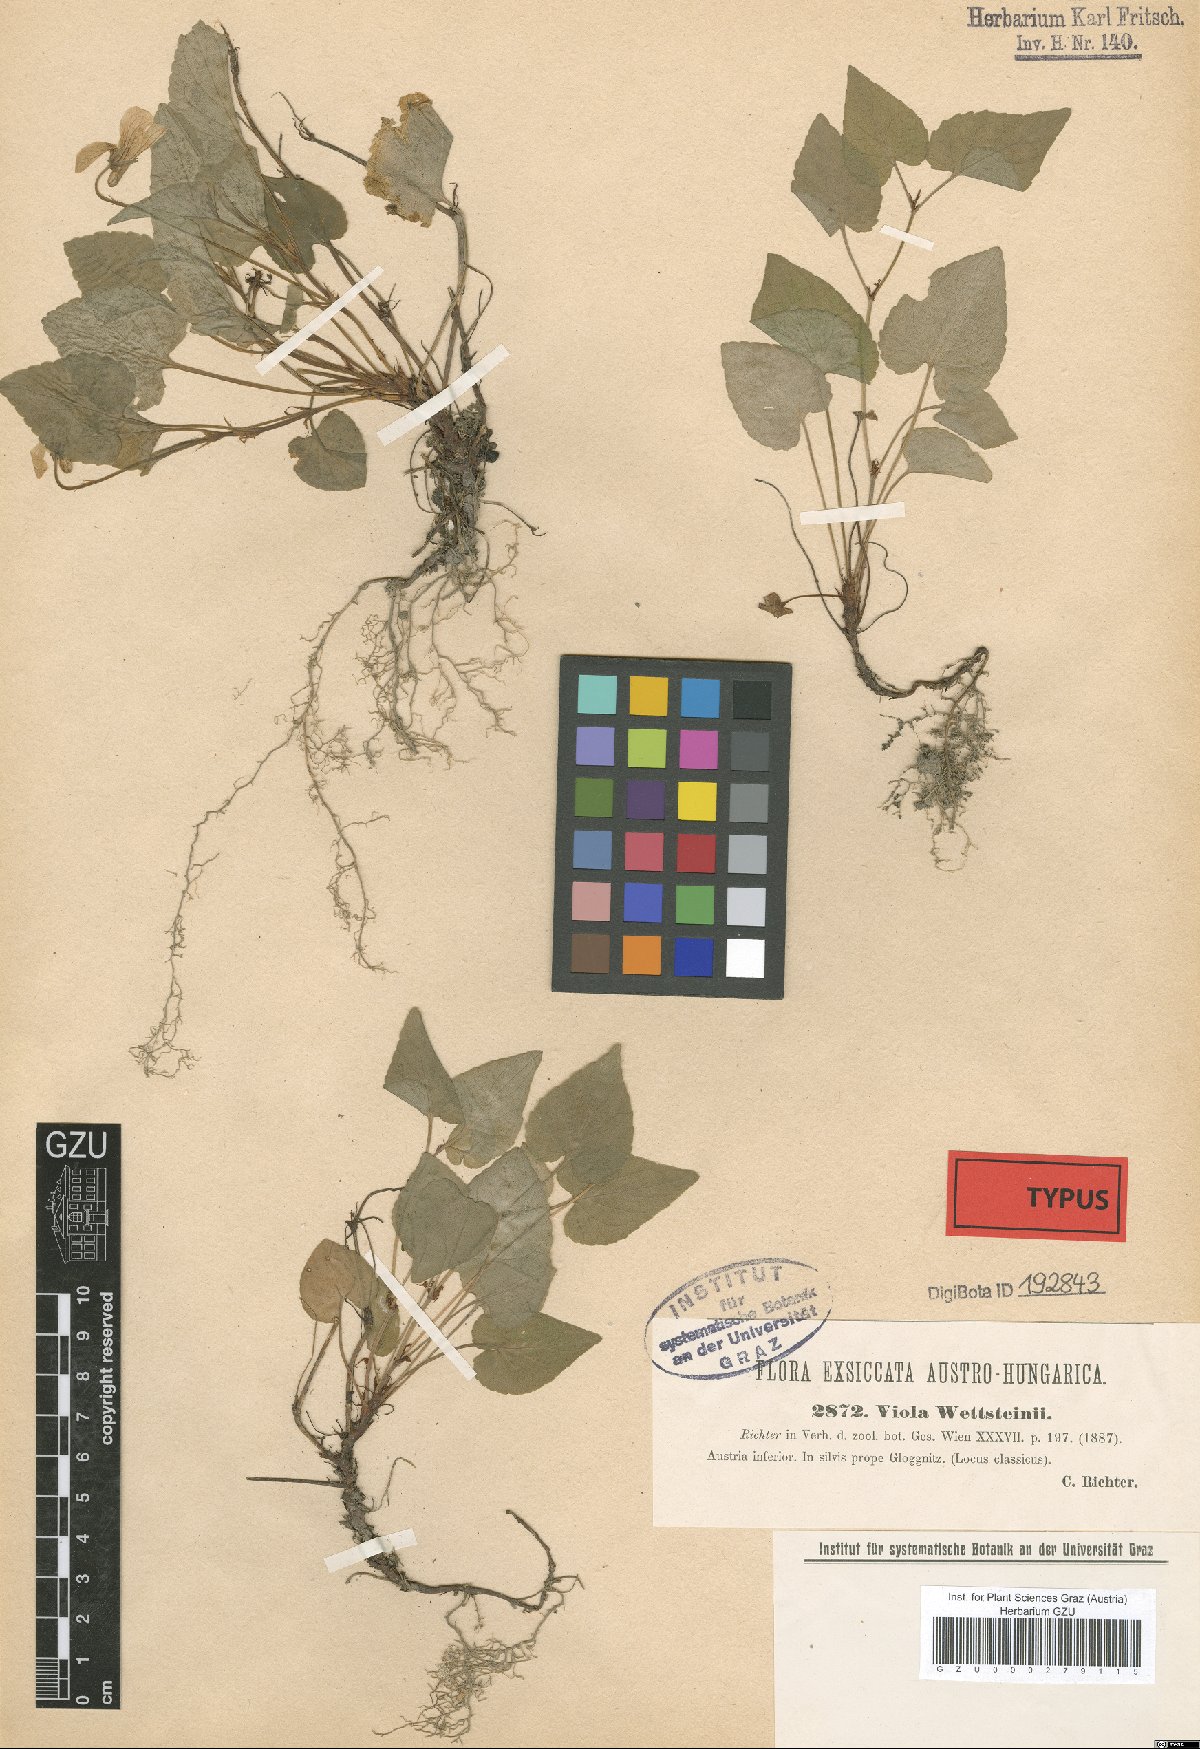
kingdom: Plantae
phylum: Tracheophyta
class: Magnoliopsida
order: Malpighiales
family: Violaceae
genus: Viola
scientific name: Viola bavarica
